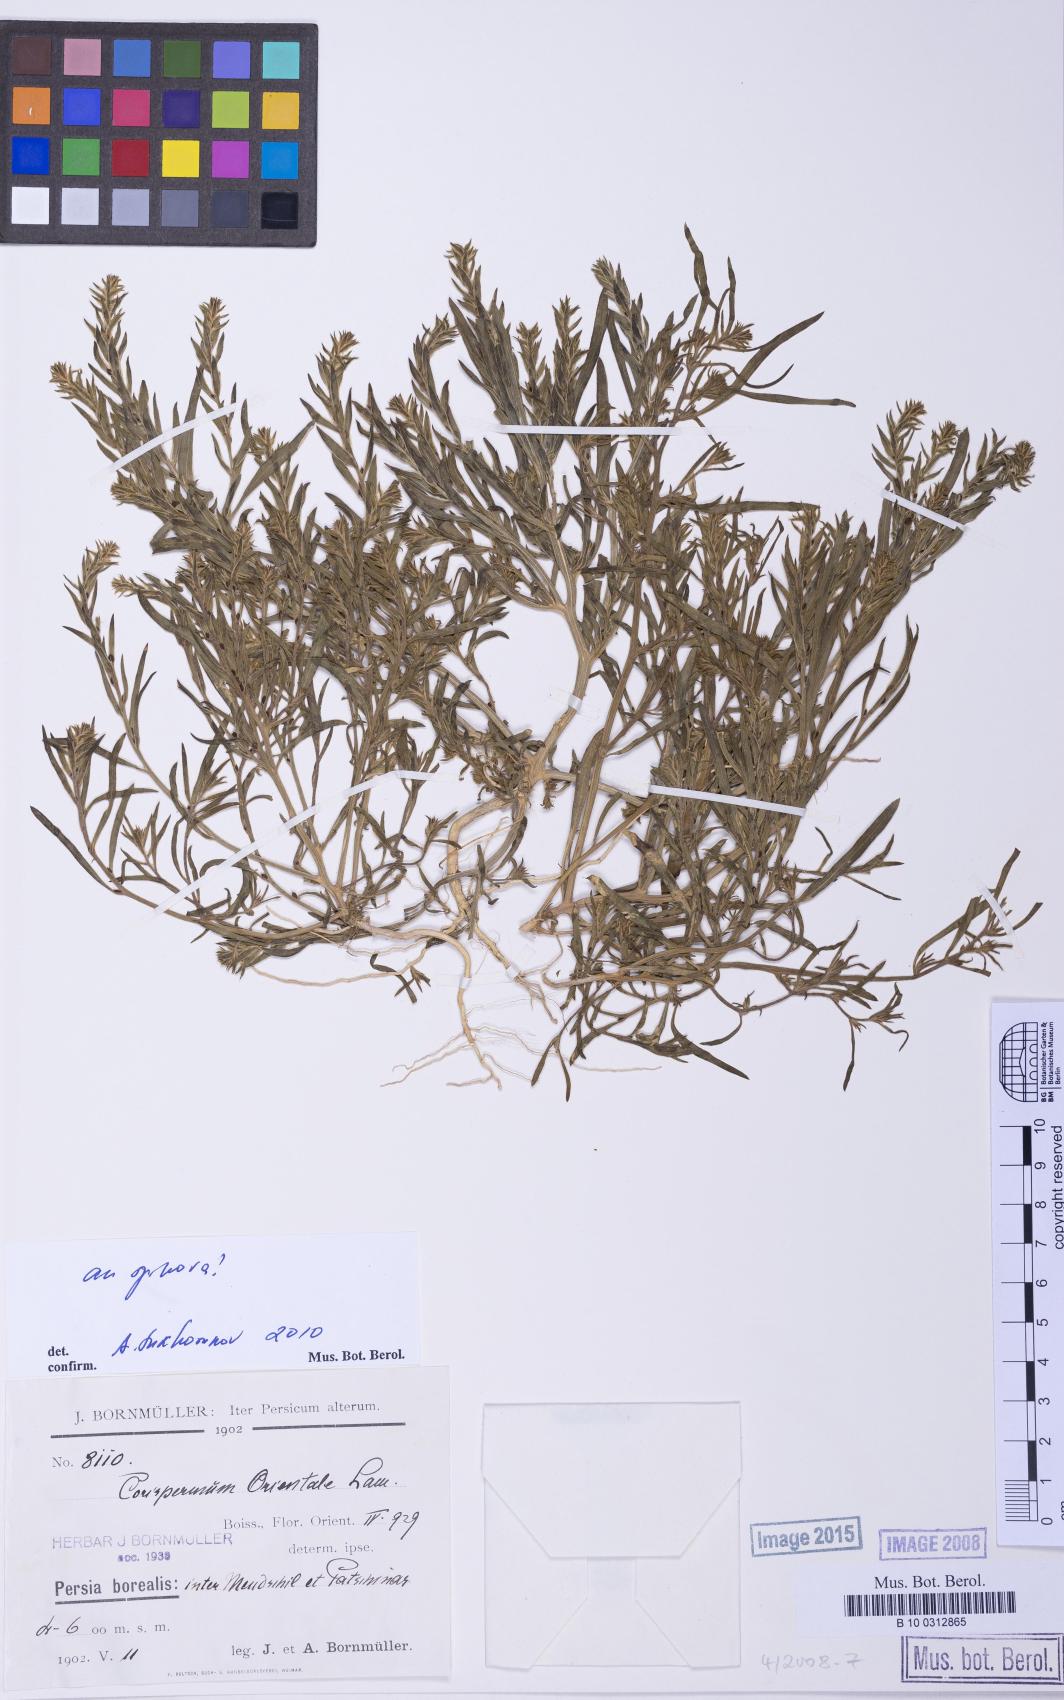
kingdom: Plantae
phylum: Tracheophyta
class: Magnoliopsida
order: Caryophyllales
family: Amaranthaceae
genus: Corispermum
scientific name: Corispermum aralocaspicum
